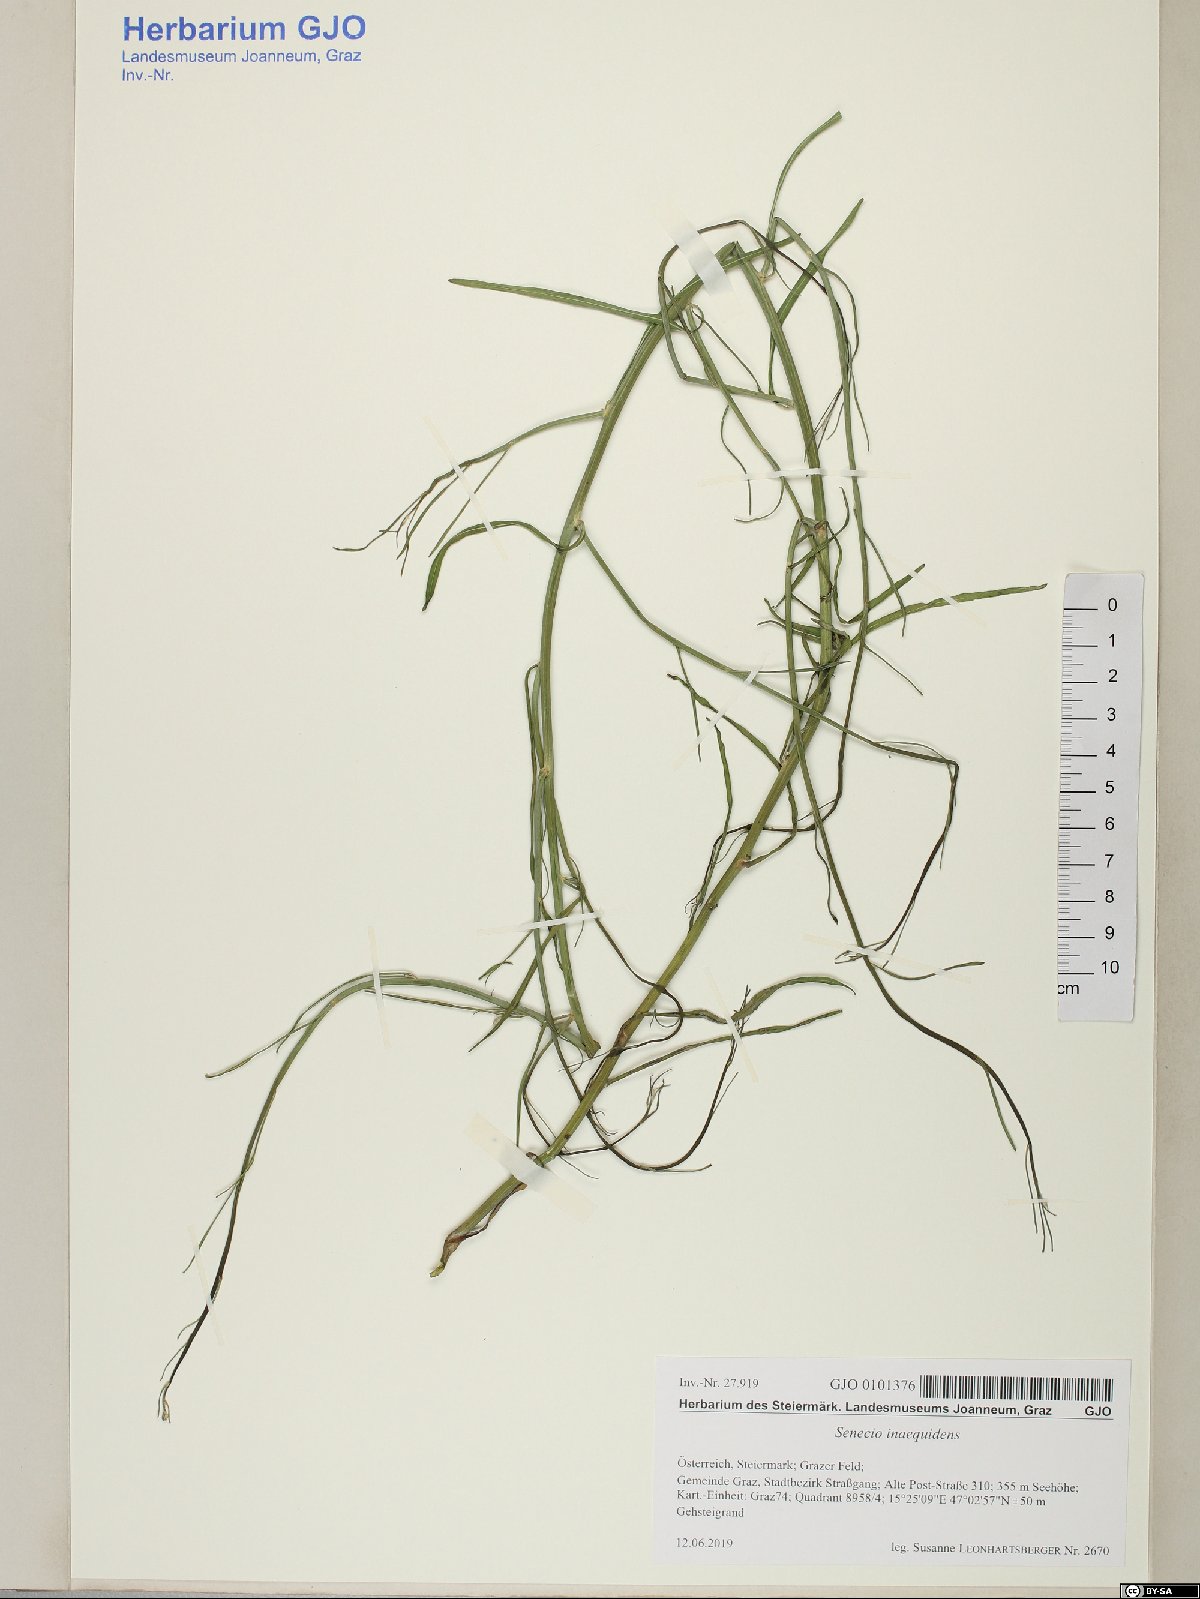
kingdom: Plantae
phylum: Tracheophyta
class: Magnoliopsida
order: Asterales
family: Asteraceae
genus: Senecio
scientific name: Senecio inaequidens
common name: Narrow-leaved ragwort
